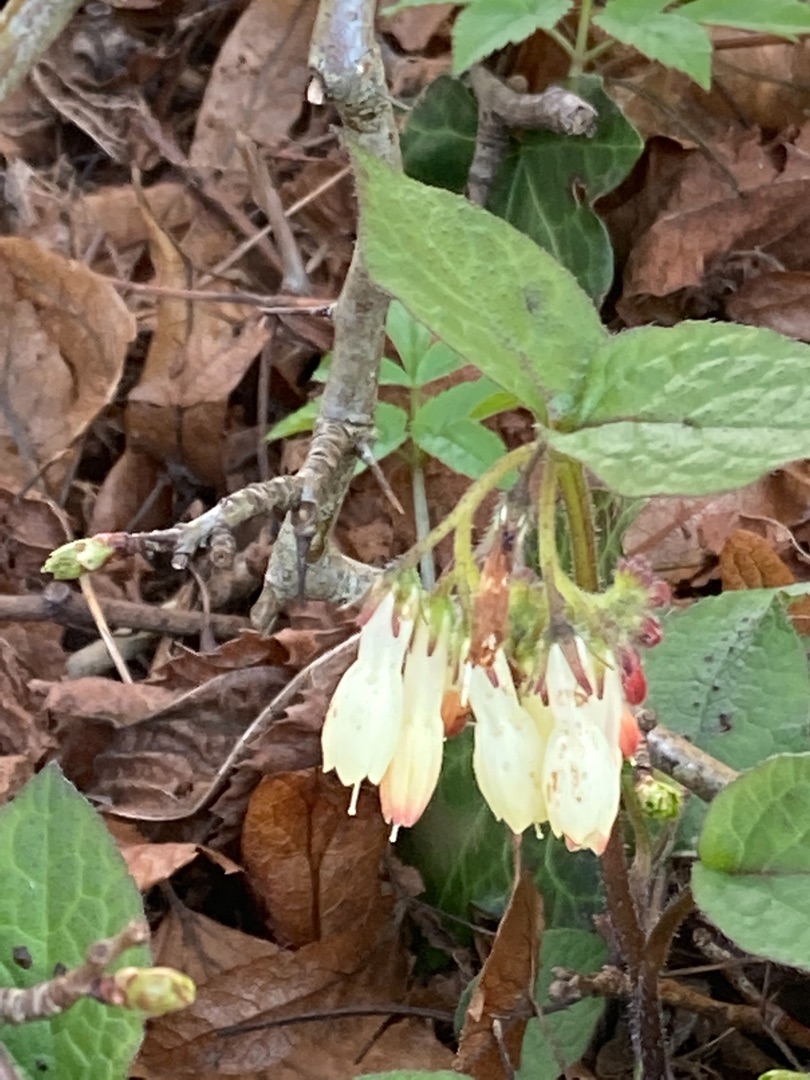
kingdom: Plantae
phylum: Tracheophyta
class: Magnoliopsida
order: Boraginales
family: Boraginaceae
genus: Symphytum
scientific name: Symphytum tuberosum
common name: Knoldet kulsukker
